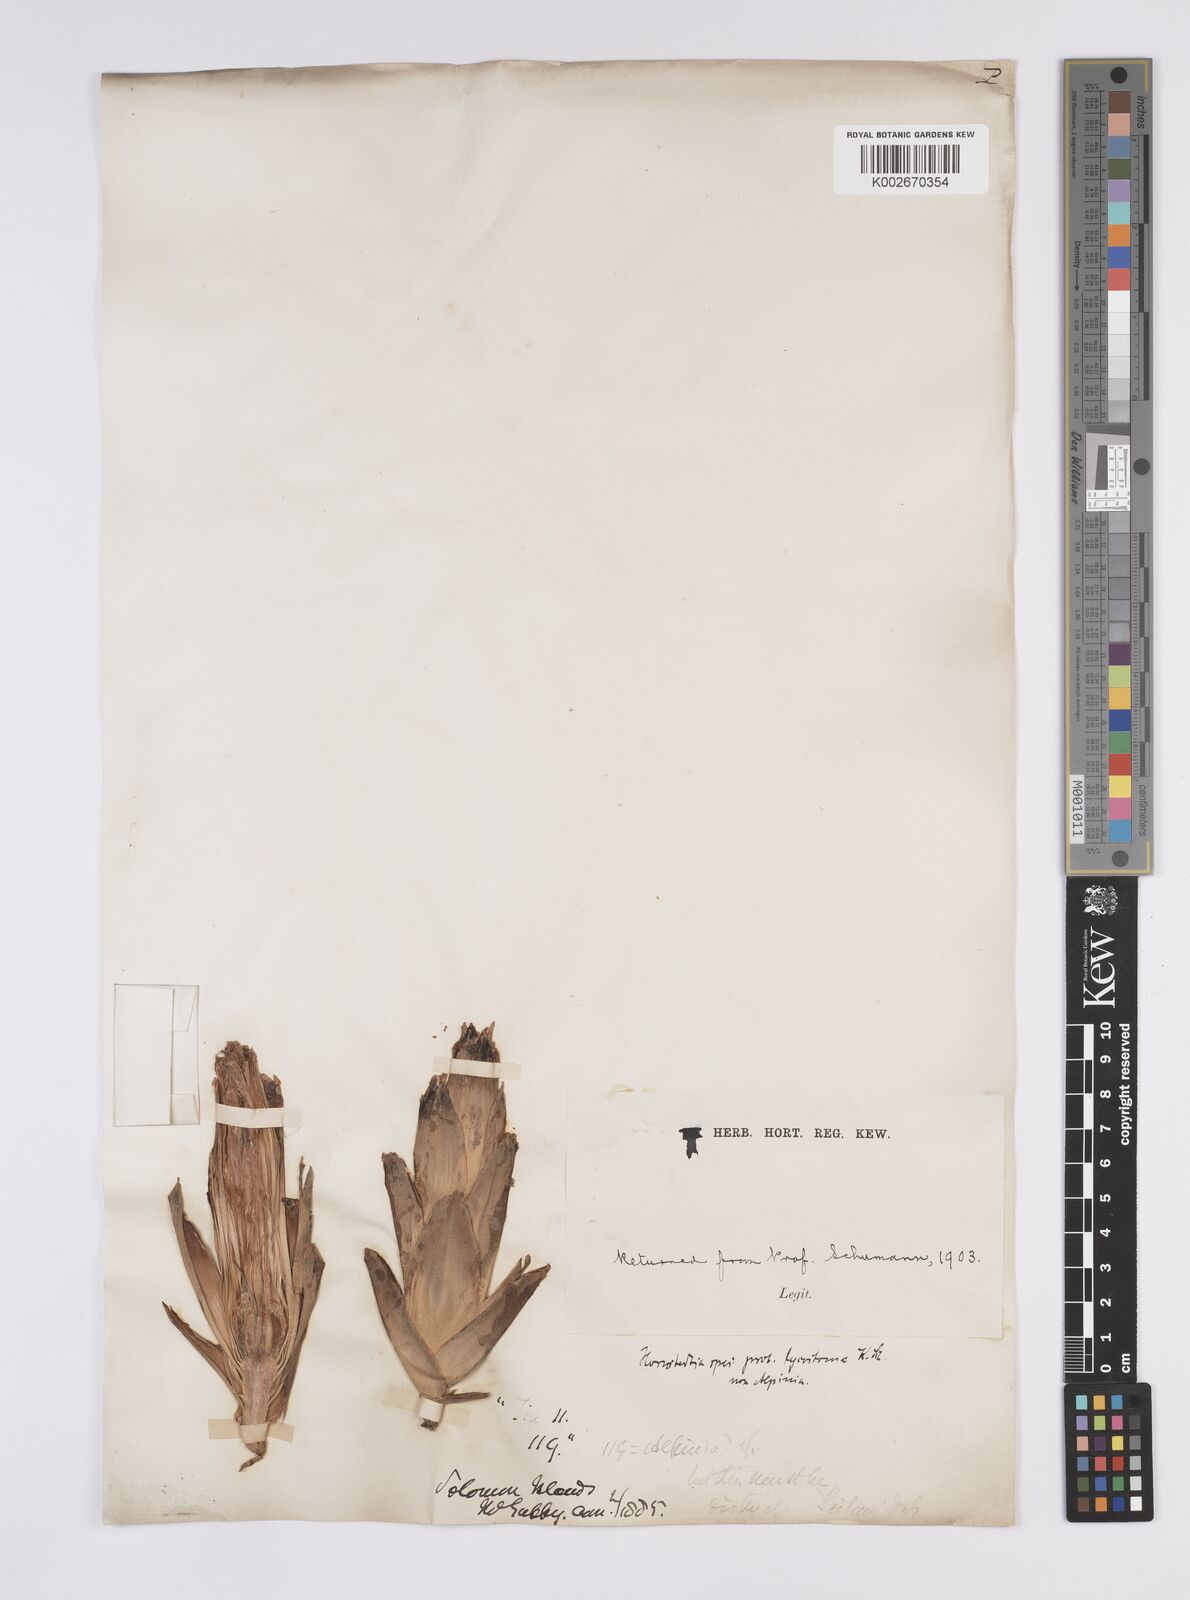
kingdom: Plantae
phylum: Tracheophyta
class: Liliopsida
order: Zingiberales
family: Zingiberaceae
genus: Hornstedtia
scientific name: Hornstedtia scottiana
